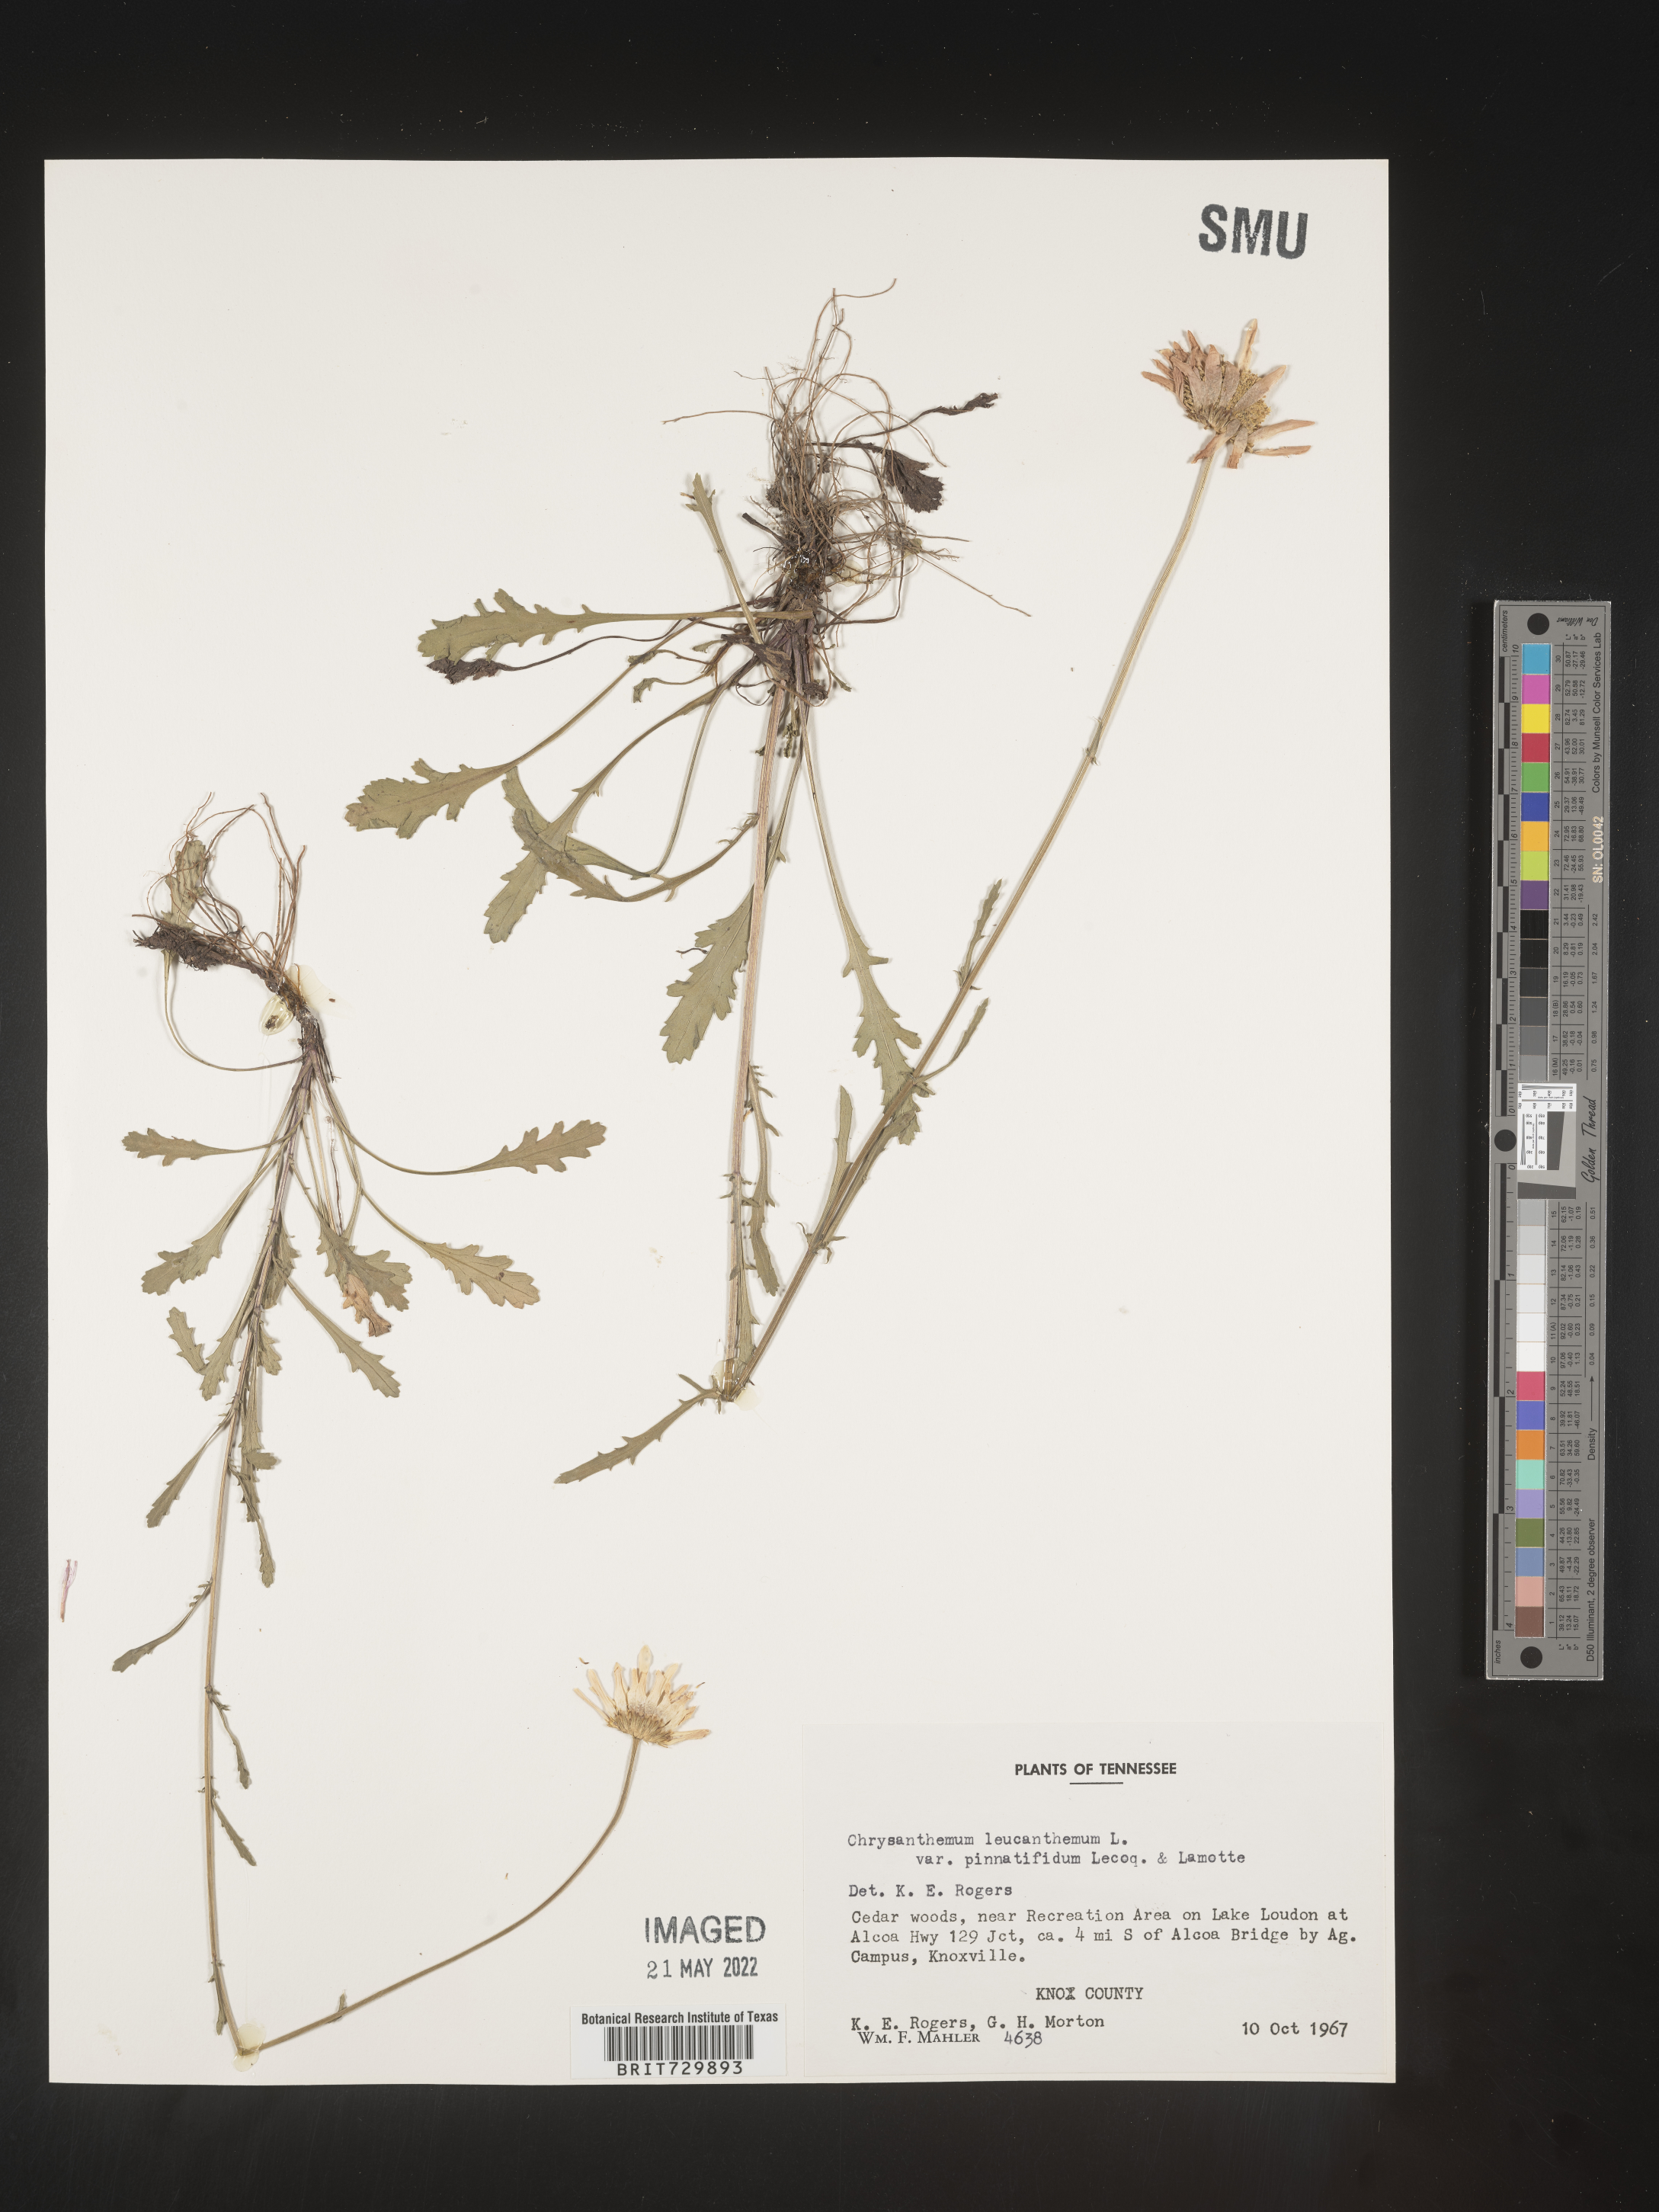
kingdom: Plantae
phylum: Tracheophyta
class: Magnoliopsida
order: Asterales
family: Asteraceae
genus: Leucanthemum
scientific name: Leucanthemum vulgare
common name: Oxeye daisy
